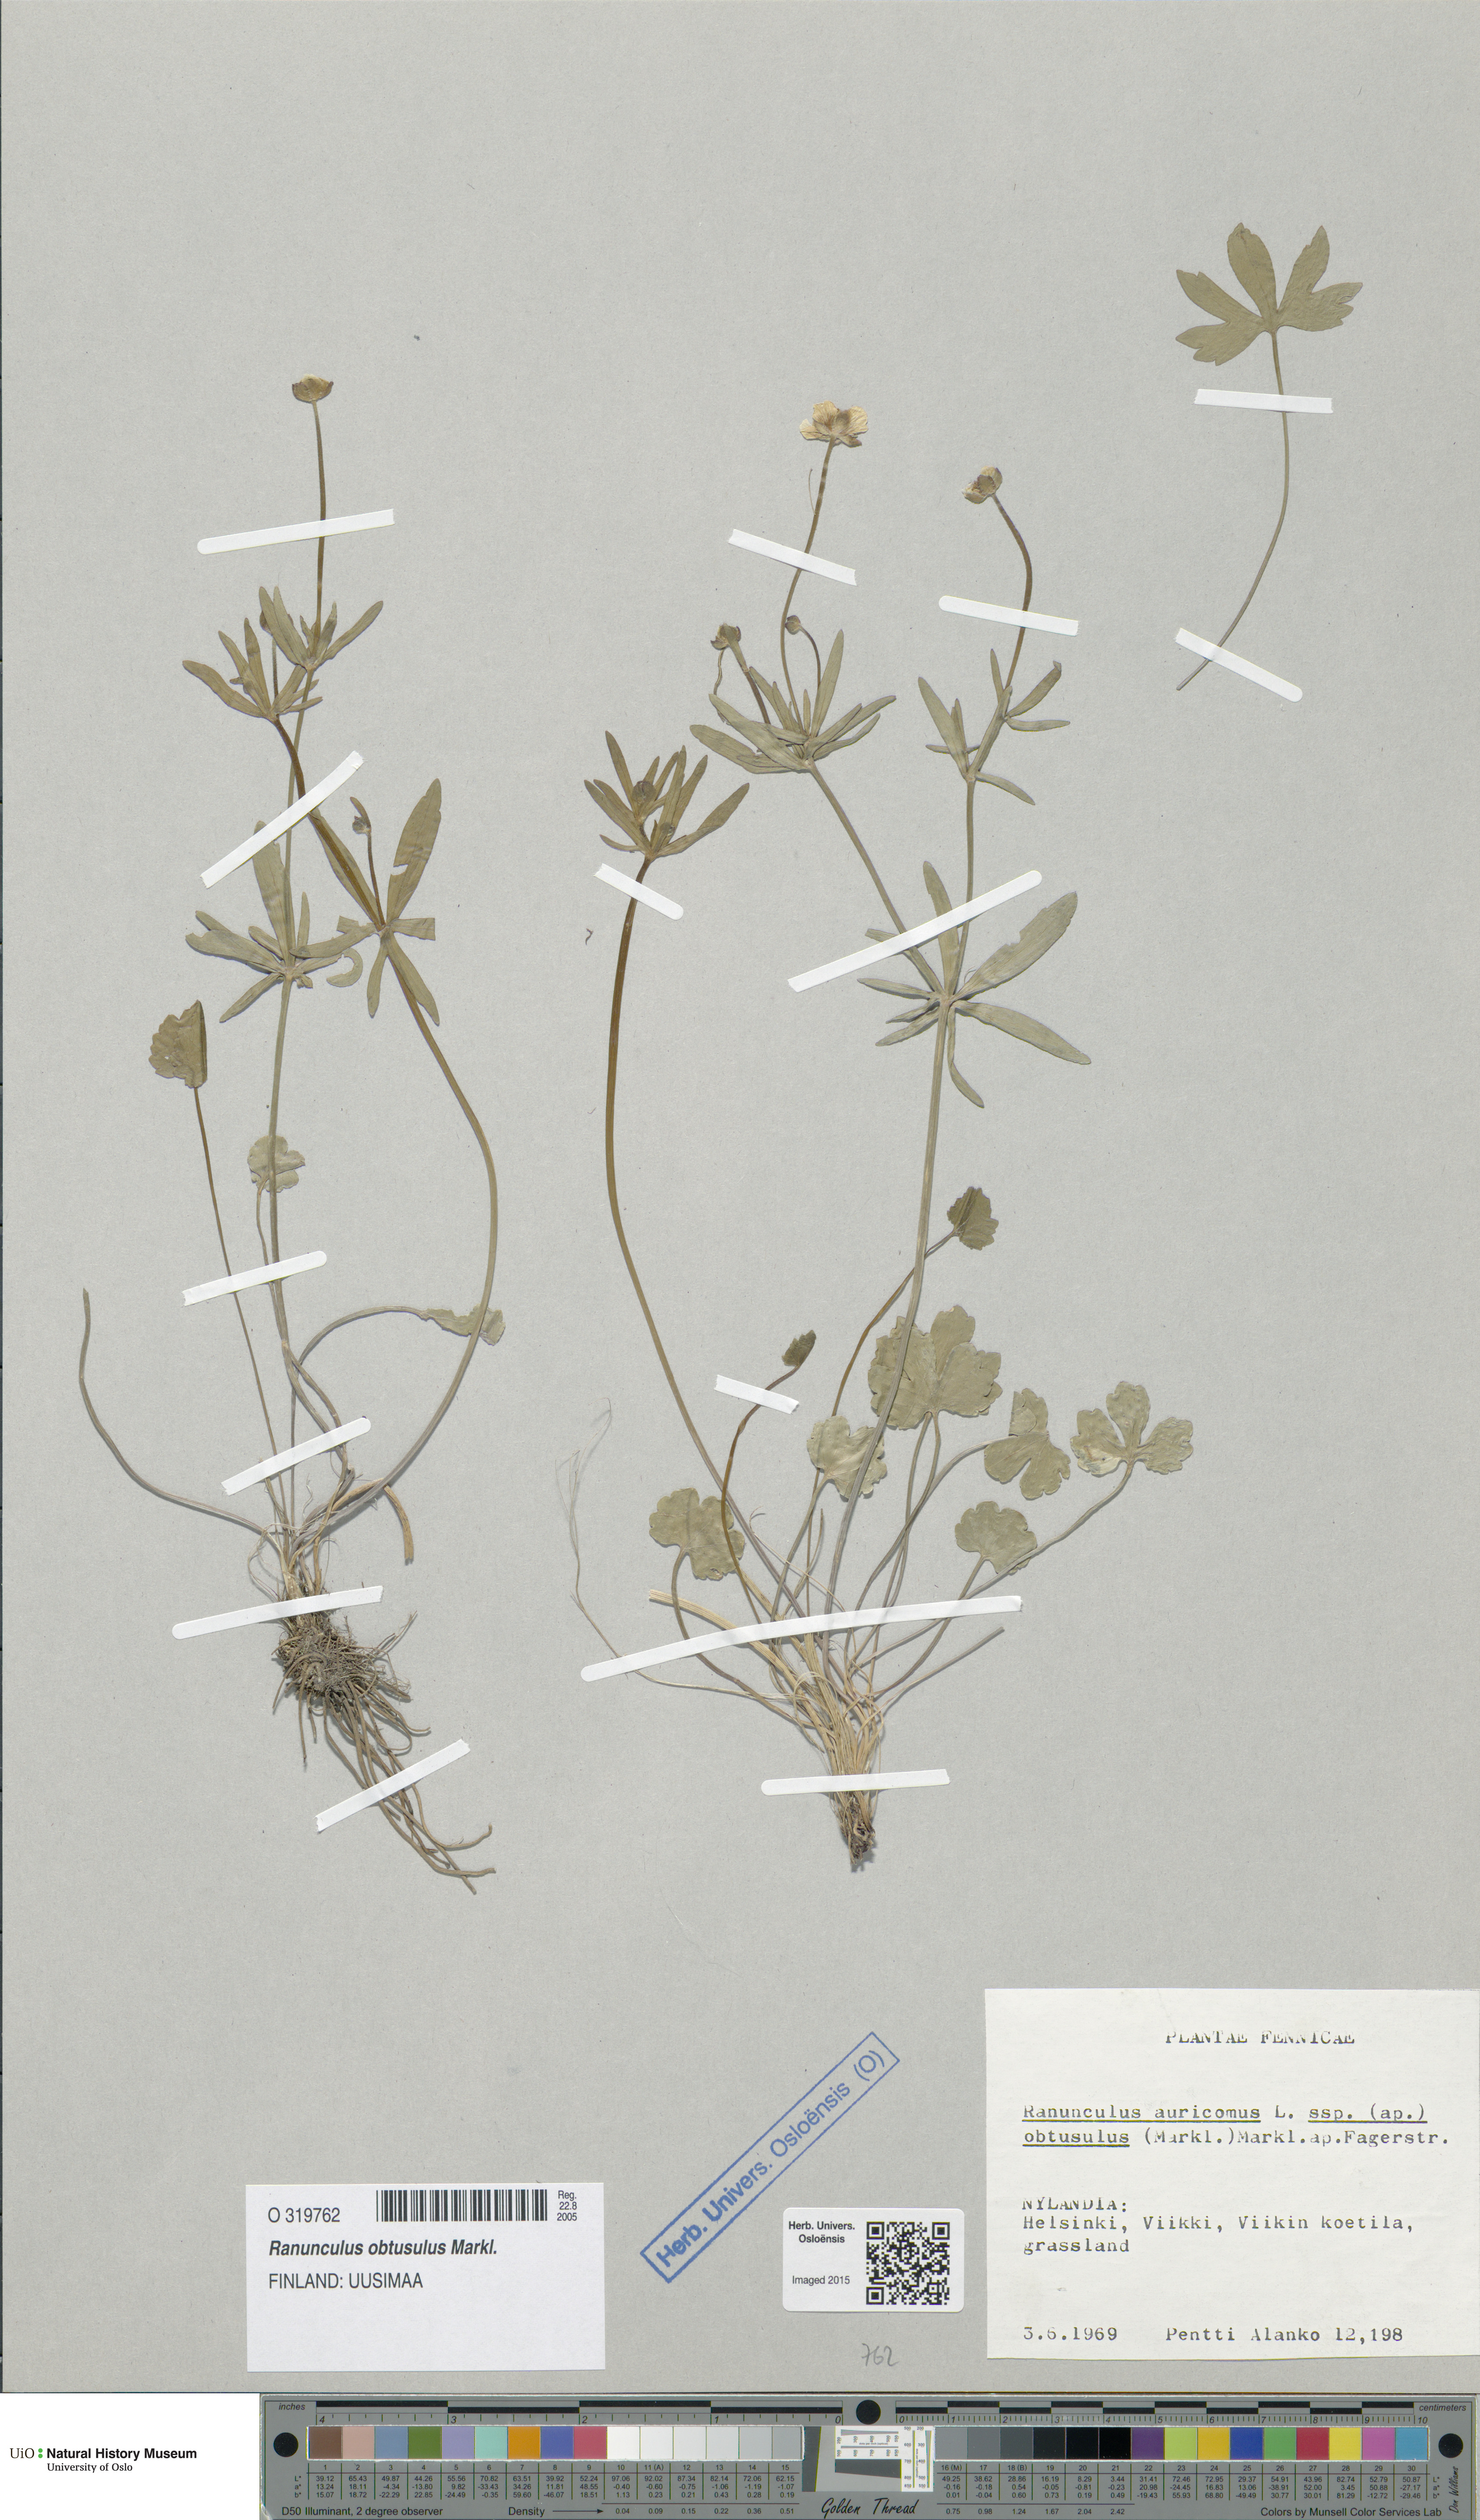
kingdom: Plantae
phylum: Tracheophyta
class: Magnoliopsida
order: Ranunculales
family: Ranunculaceae
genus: Ranunculus
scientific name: Ranunculus auricomus
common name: Goldilocks buttercup
